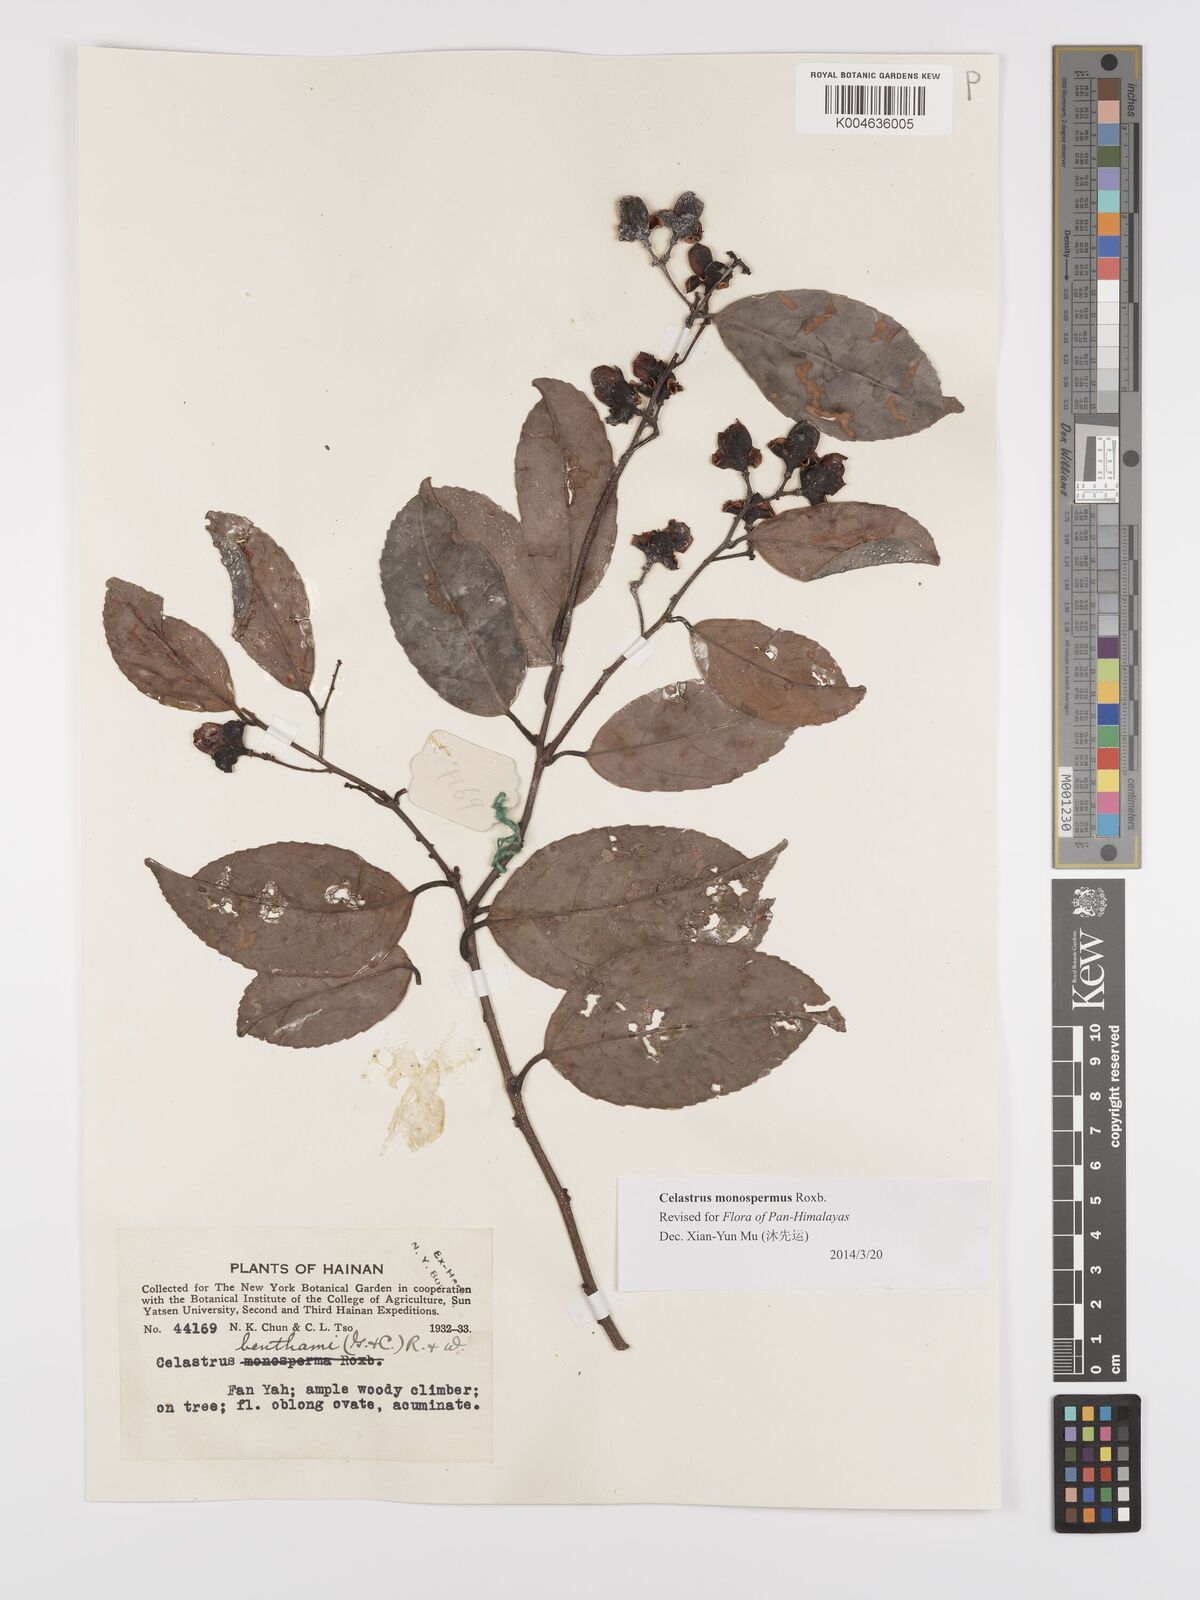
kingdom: Plantae
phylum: Tracheophyta
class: Magnoliopsida
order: Celastrales
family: Celastraceae
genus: Celastrus
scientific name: Celastrus monospermus
